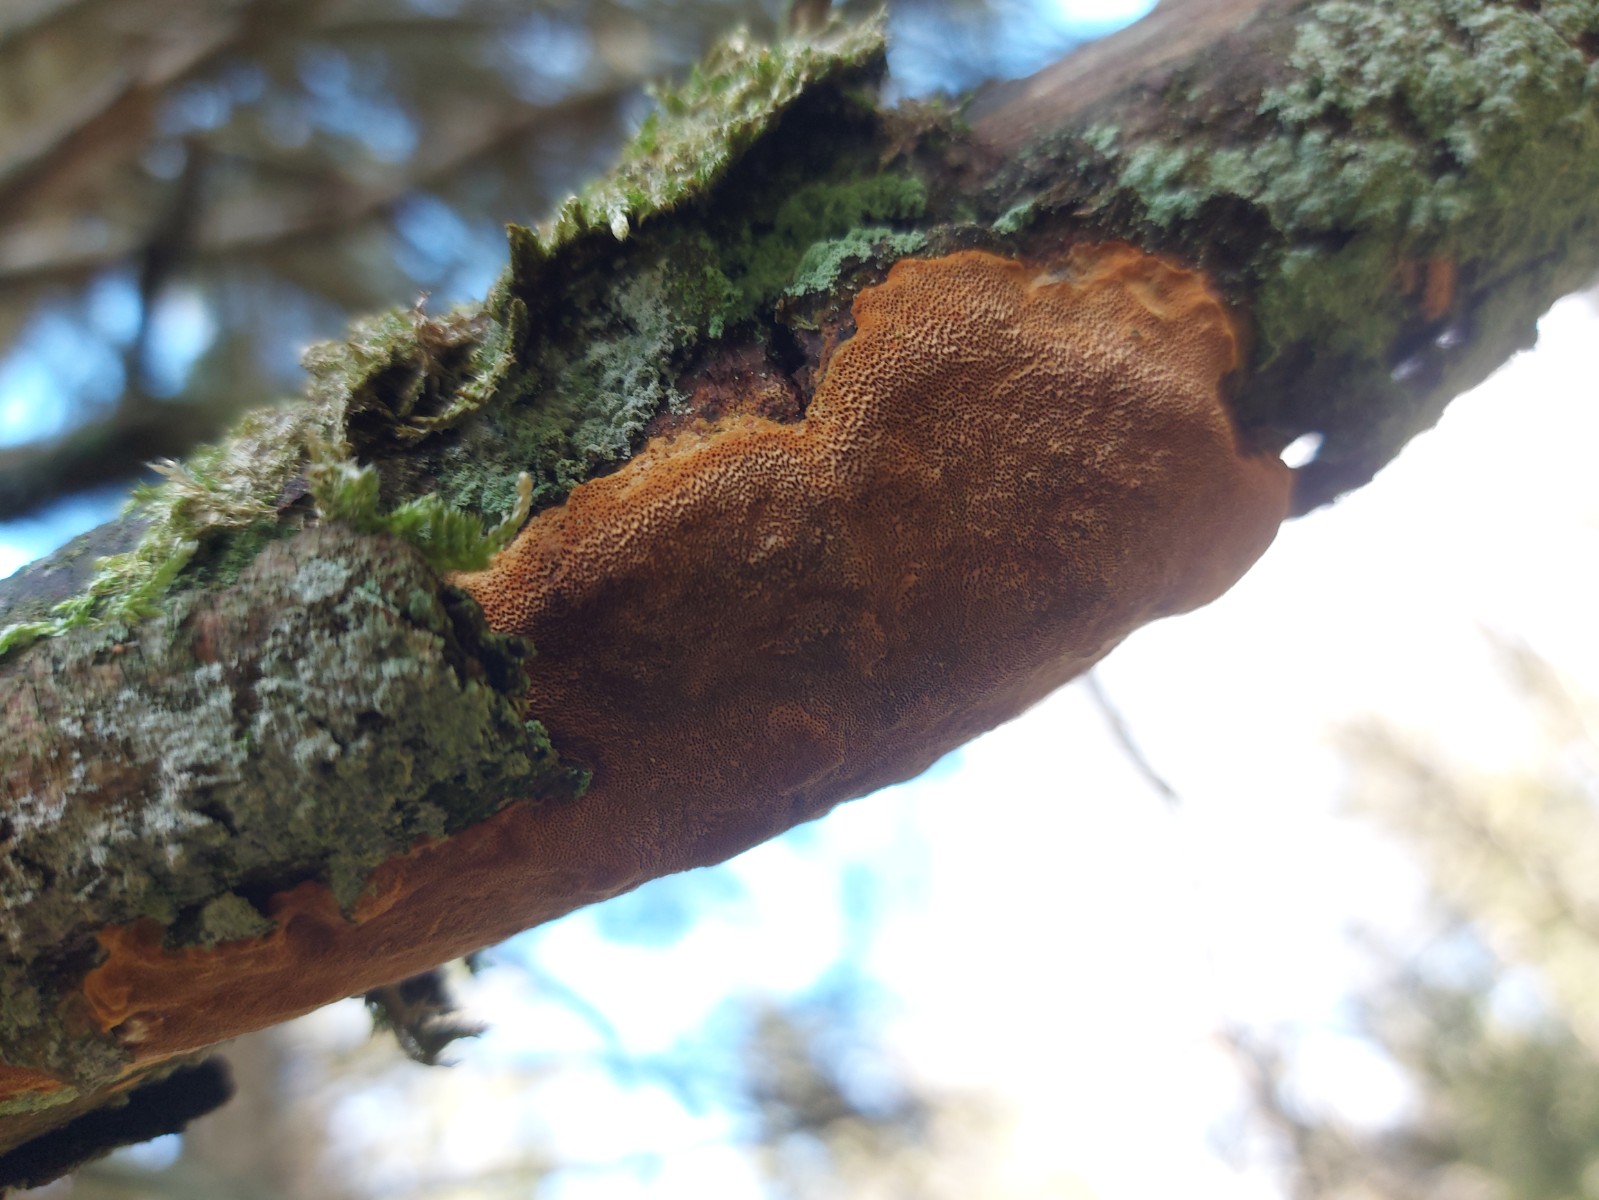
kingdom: Fungi
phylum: Basidiomycota
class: Agaricomycetes
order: Hymenochaetales
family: Hymenochaetaceae
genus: Fuscoporia
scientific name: Fuscoporia ferrea
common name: skorpe-ildporesvamp
